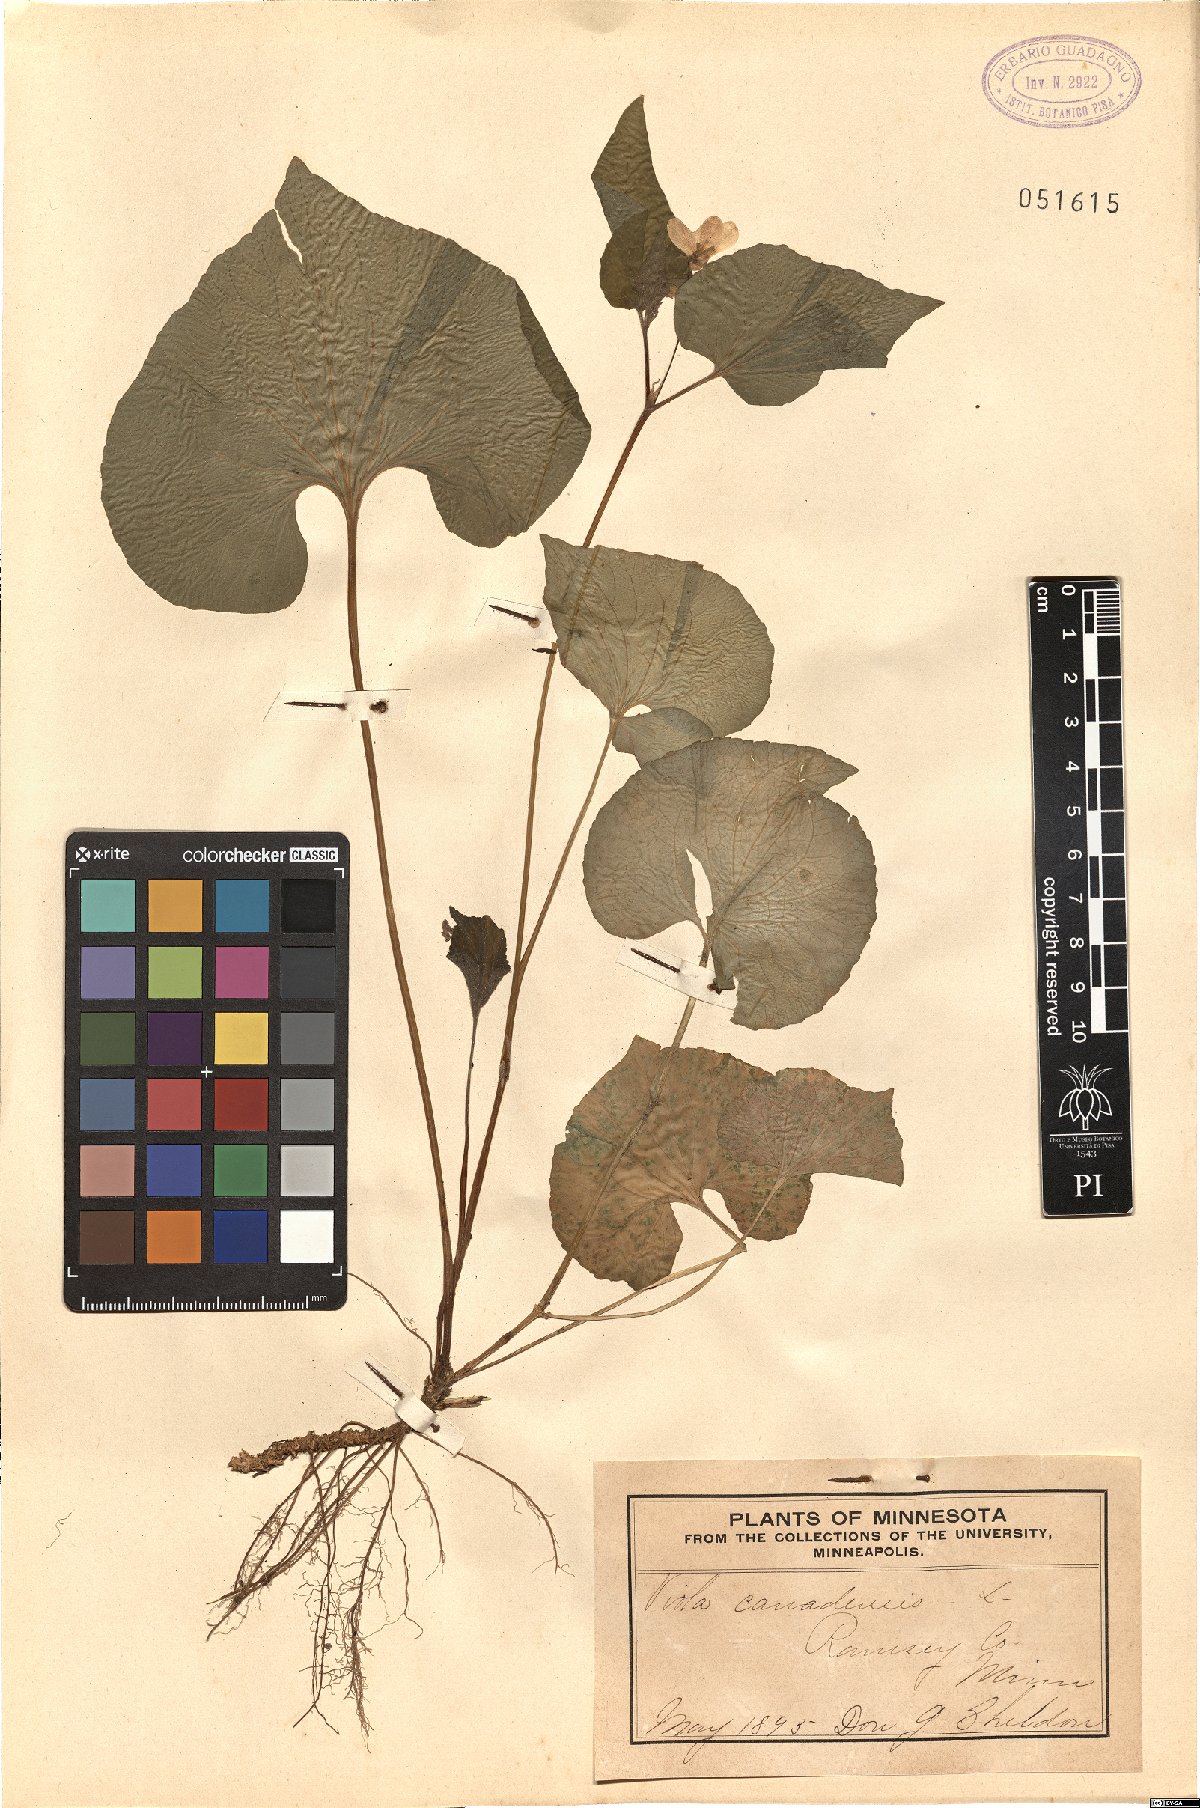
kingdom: Plantae
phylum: Tracheophyta
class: Magnoliopsida
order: Malpighiales
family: Violaceae
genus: Viola
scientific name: Viola canadensis
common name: Canada violet
